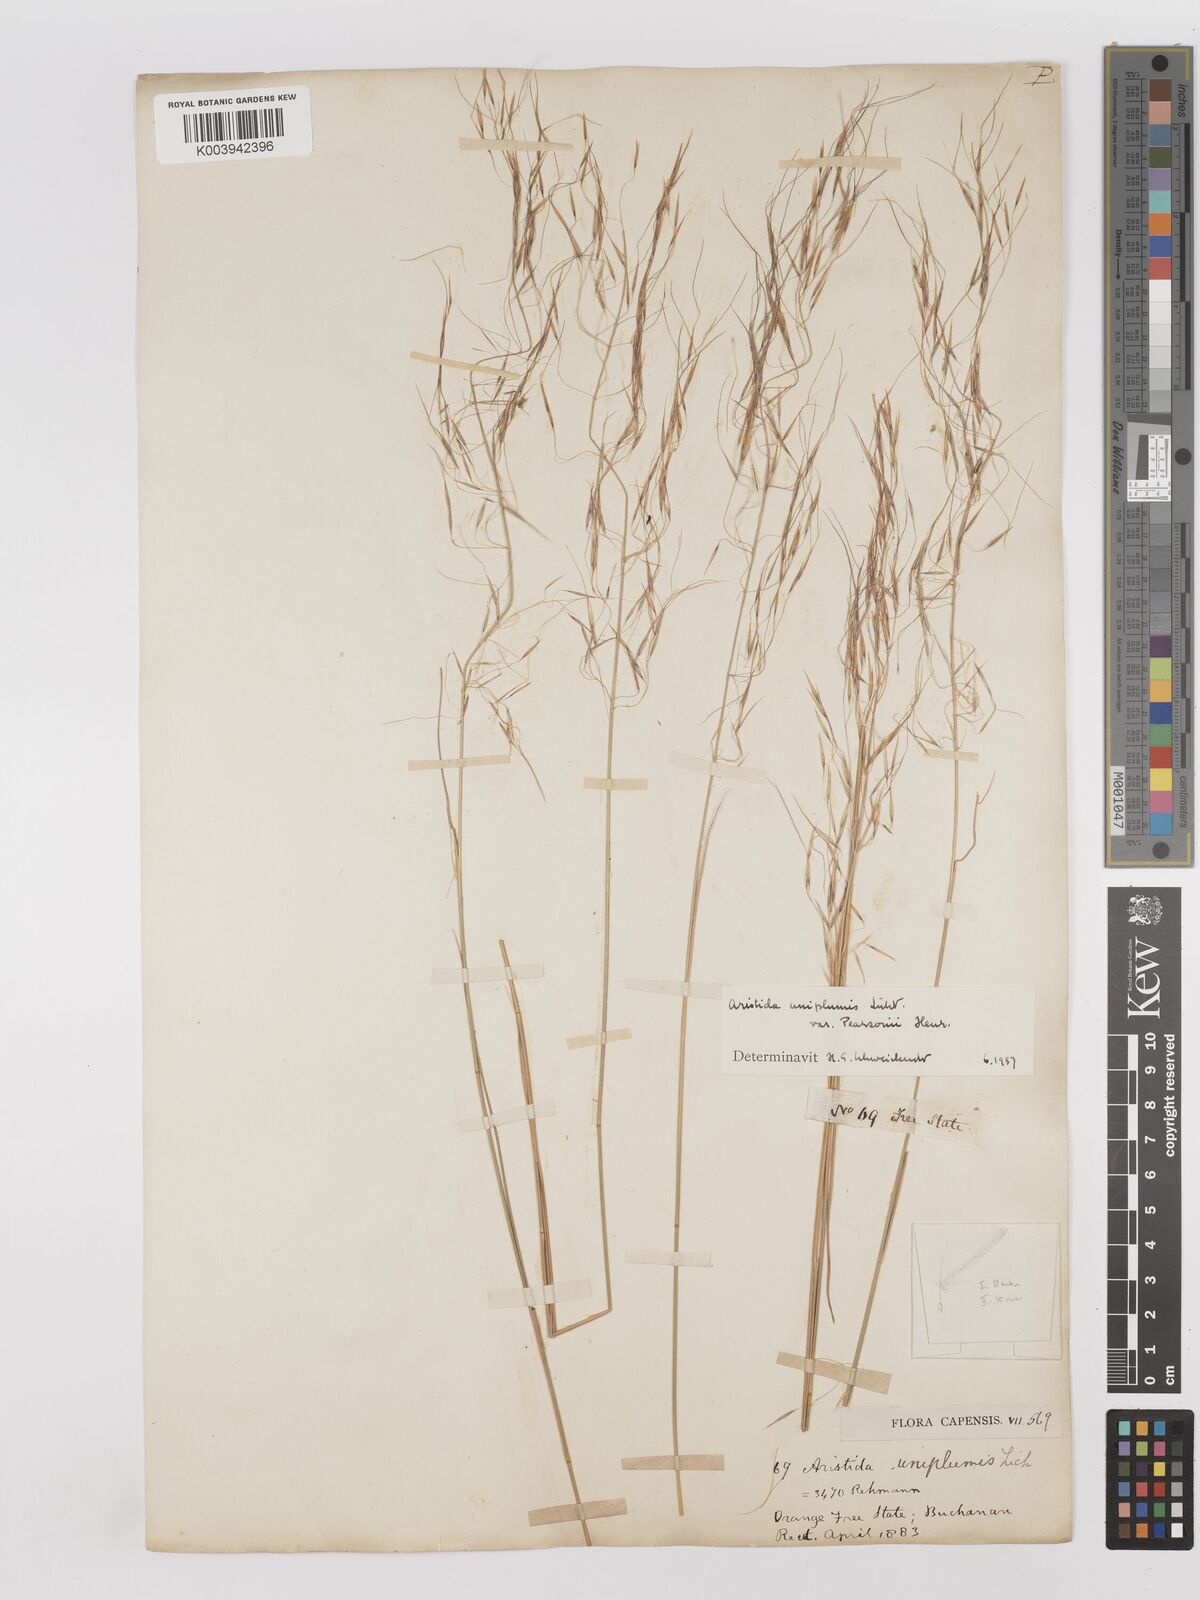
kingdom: Plantae
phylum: Tracheophyta
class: Liliopsida
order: Poales
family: Poaceae
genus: Stipagrostis
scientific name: Stipagrostis uniplumis
